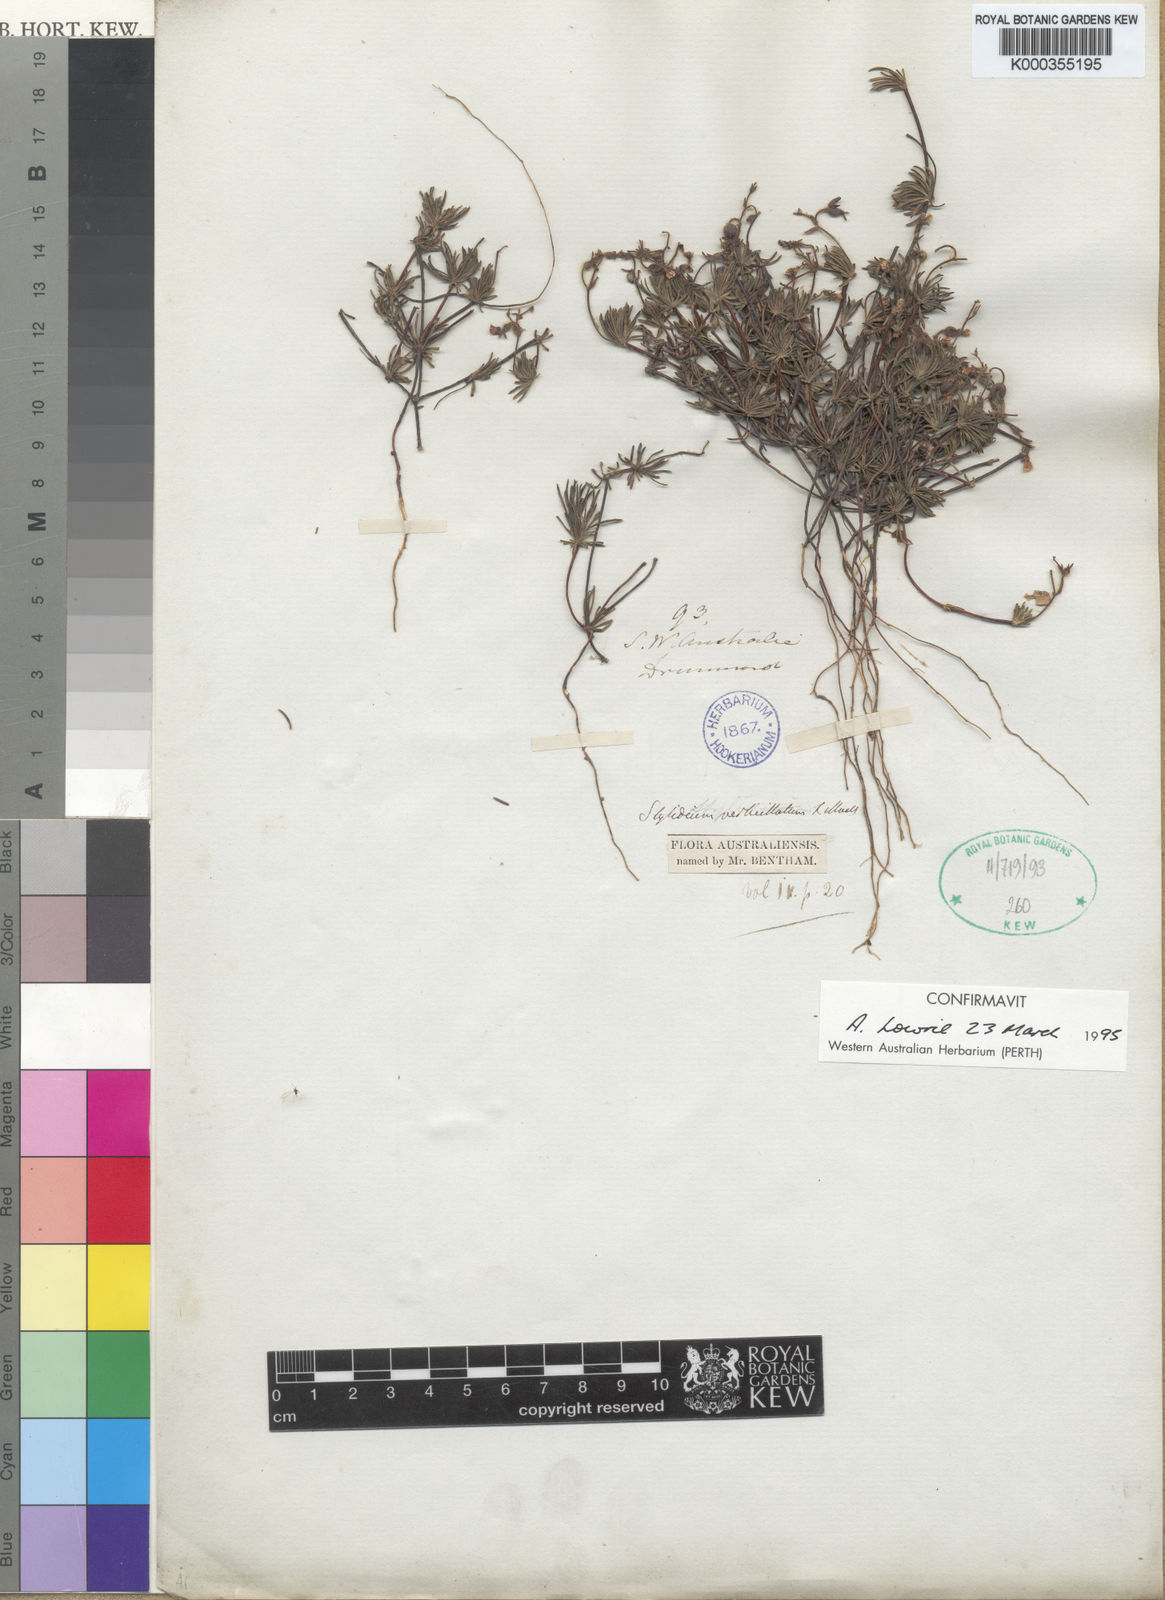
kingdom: Plantae
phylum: Tracheophyta
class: Magnoliopsida
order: Asterales
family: Stylidiaceae
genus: Stylidium
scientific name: Stylidium verticillatum
